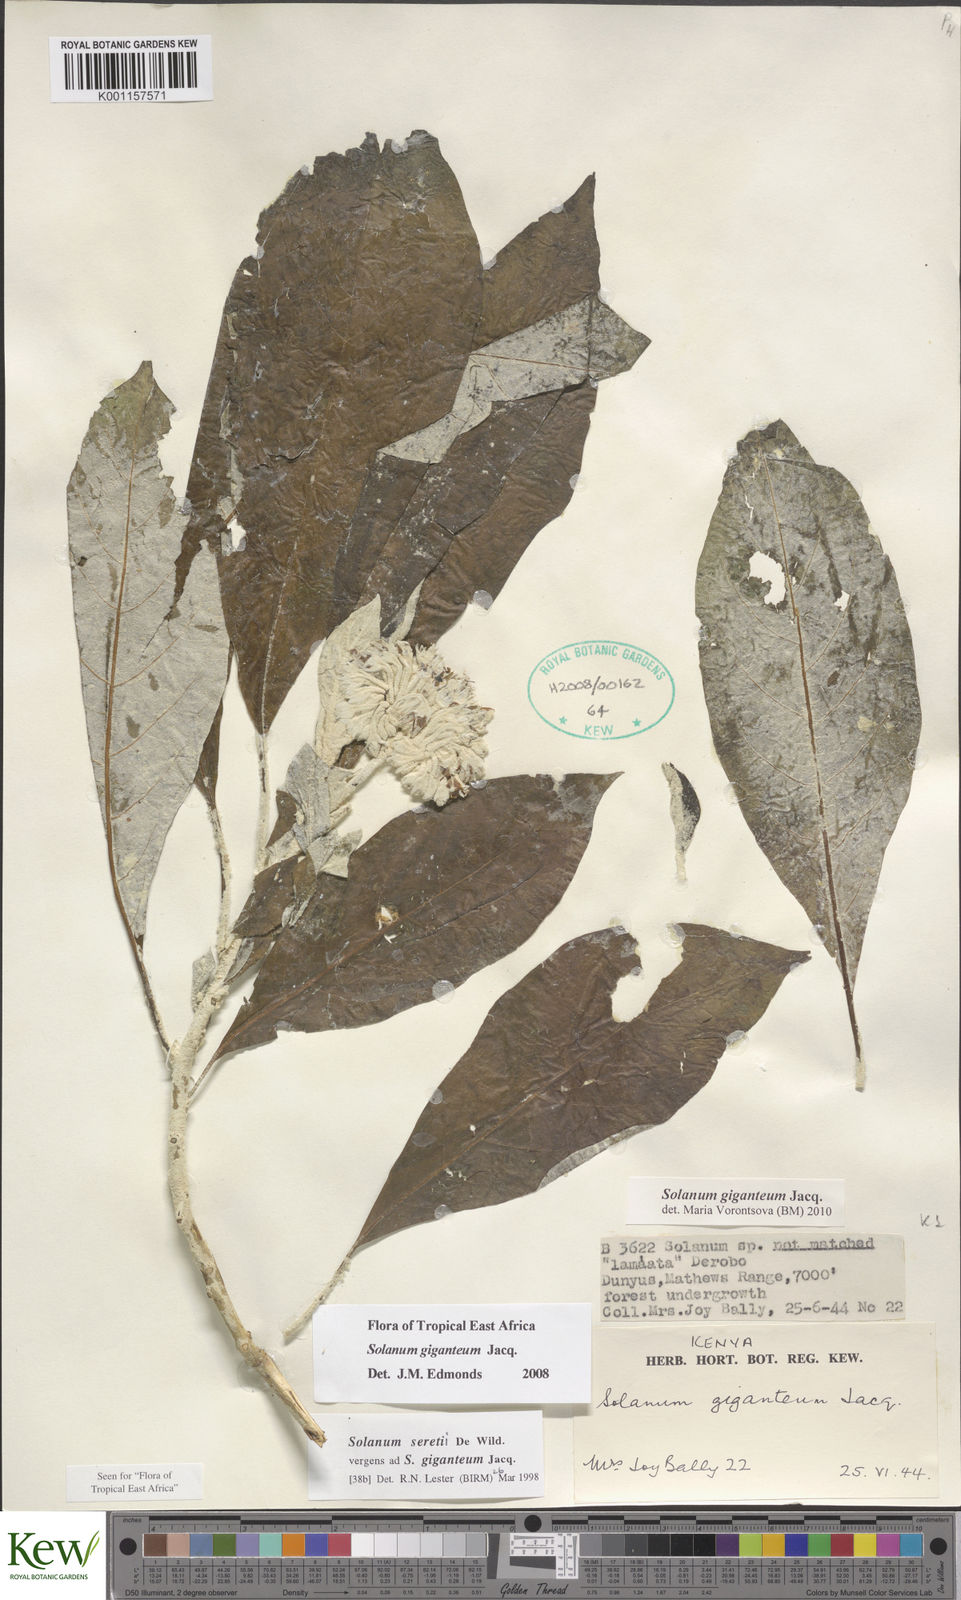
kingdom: Plantae
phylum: Tracheophyta
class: Magnoliopsida
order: Solanales
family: Solanaceae
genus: Solanum
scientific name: Solanum giganteum
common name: Healing-leaf-tree
